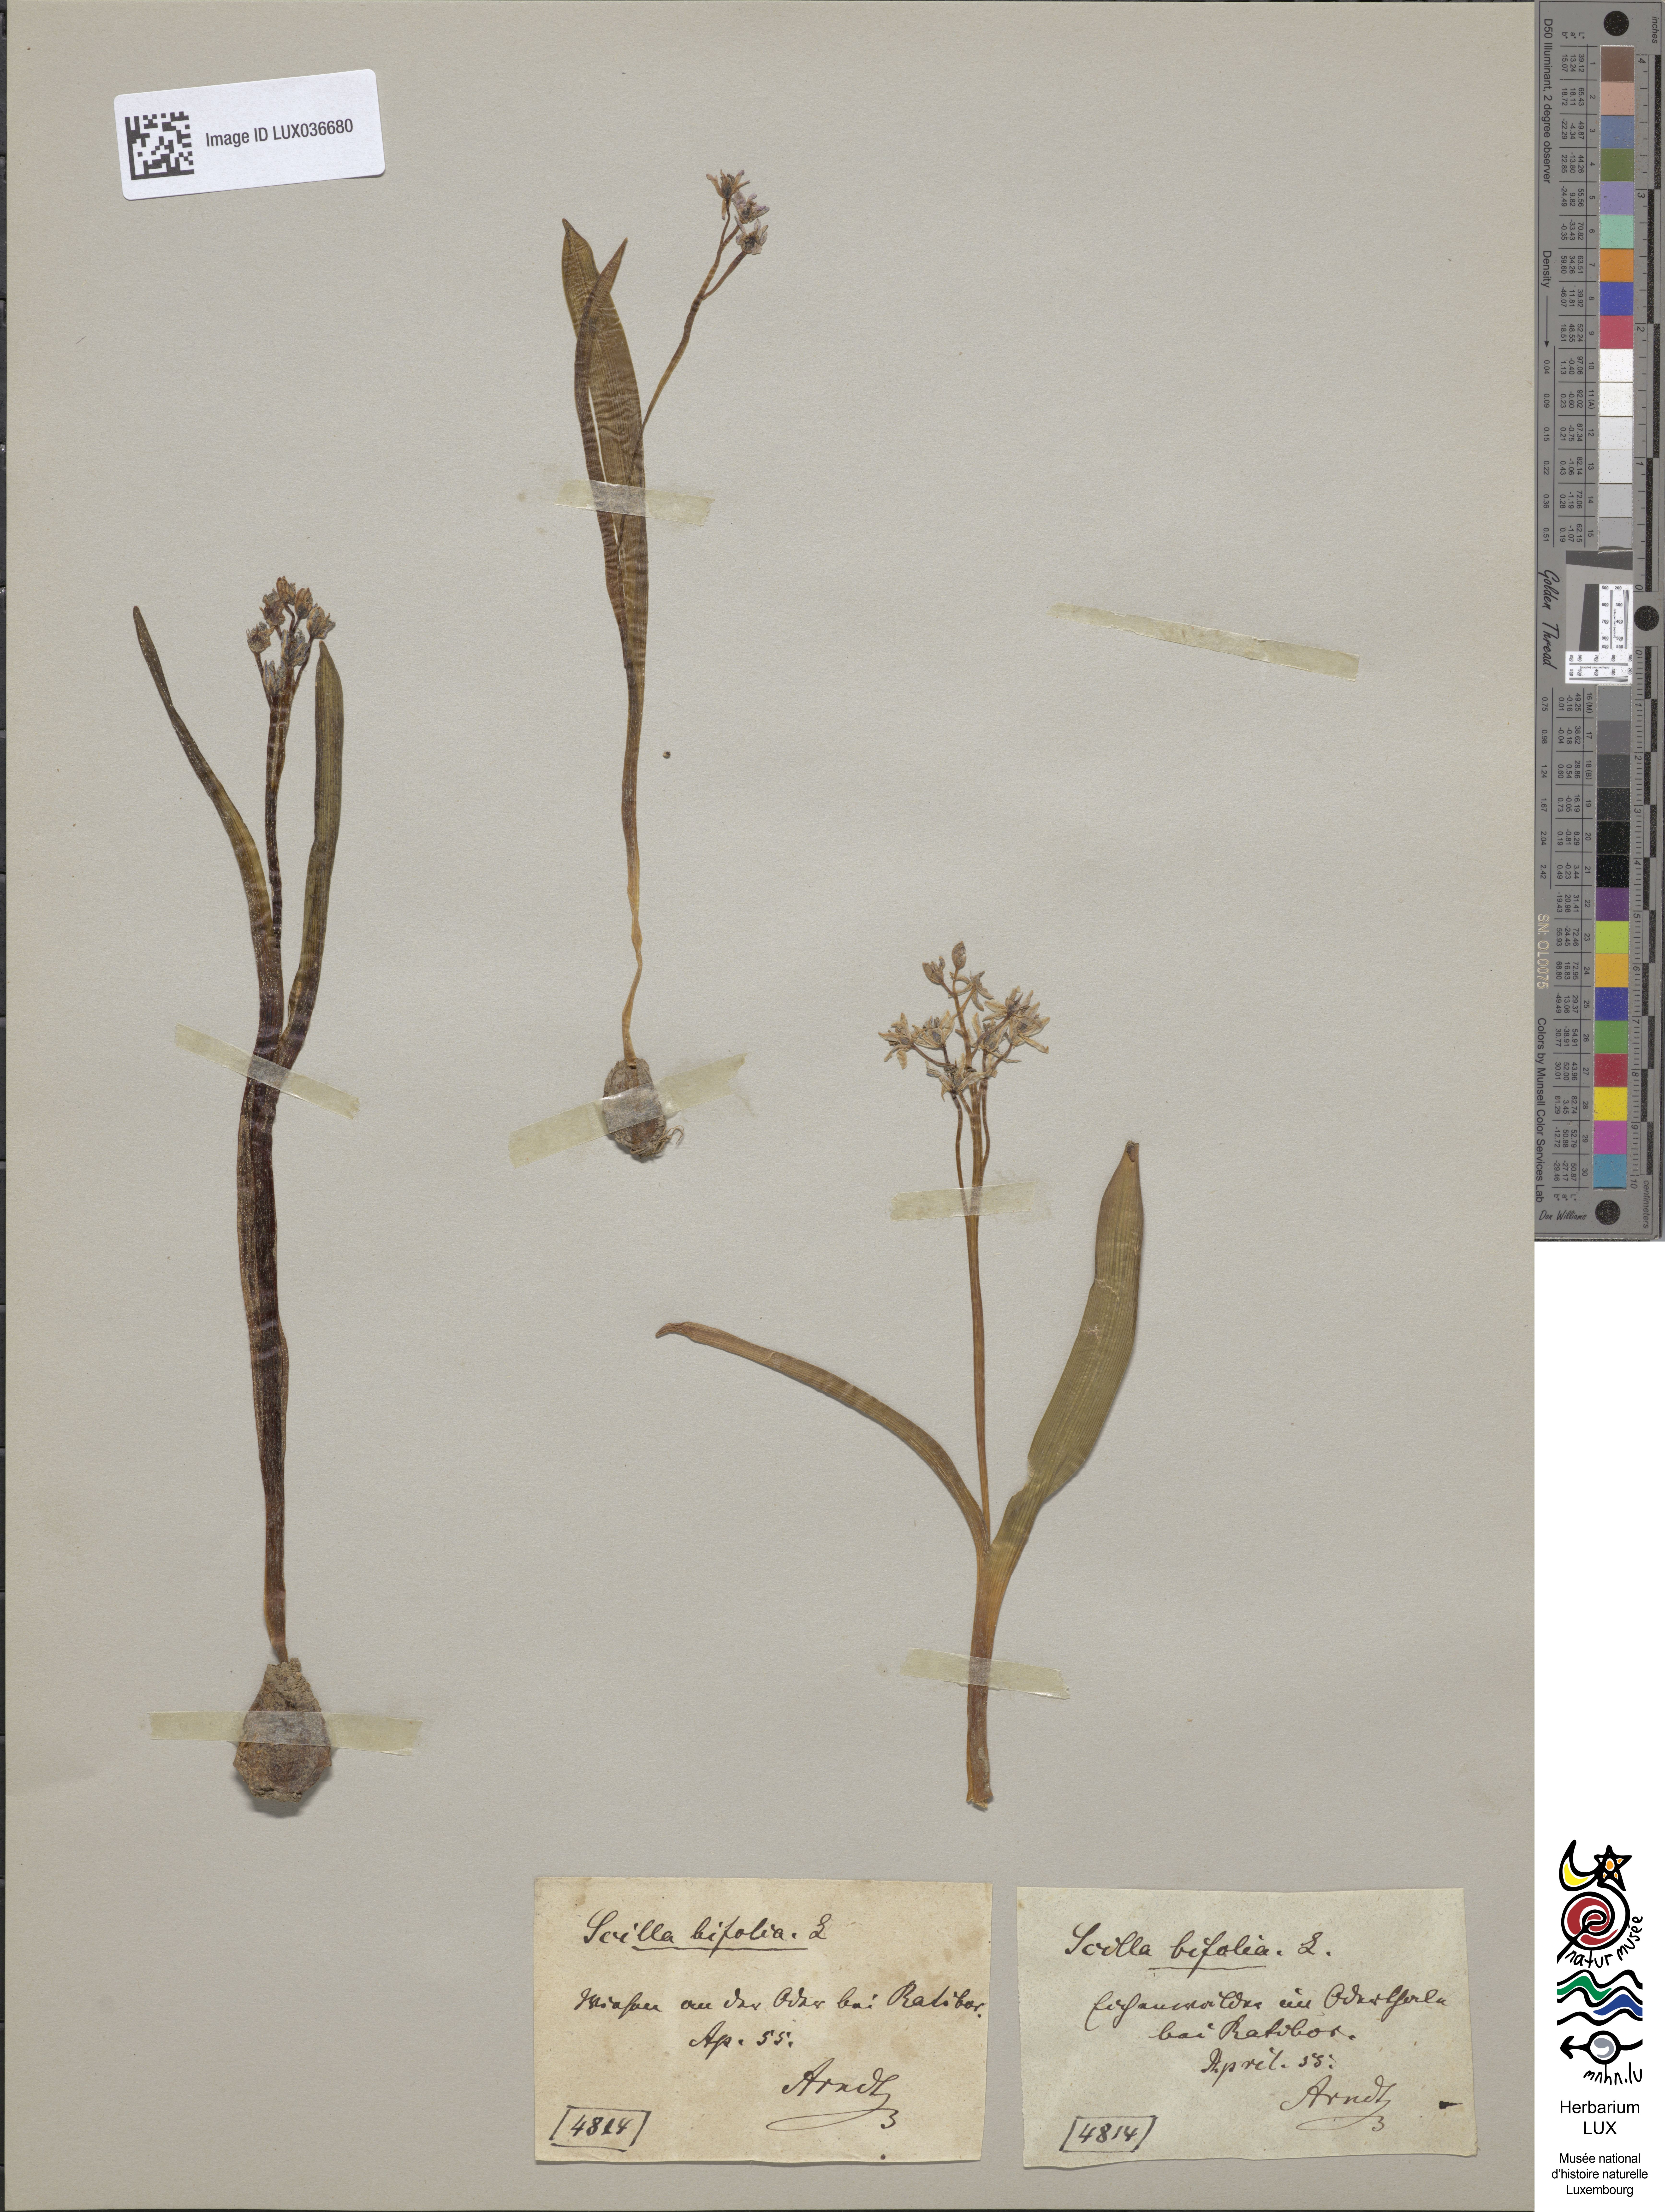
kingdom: Plantae
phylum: Tracheophyta
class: Liliopsida
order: Asparagales
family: Asparagaceae
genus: Scilla
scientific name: Scilla bifolia
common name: Alpine squill
